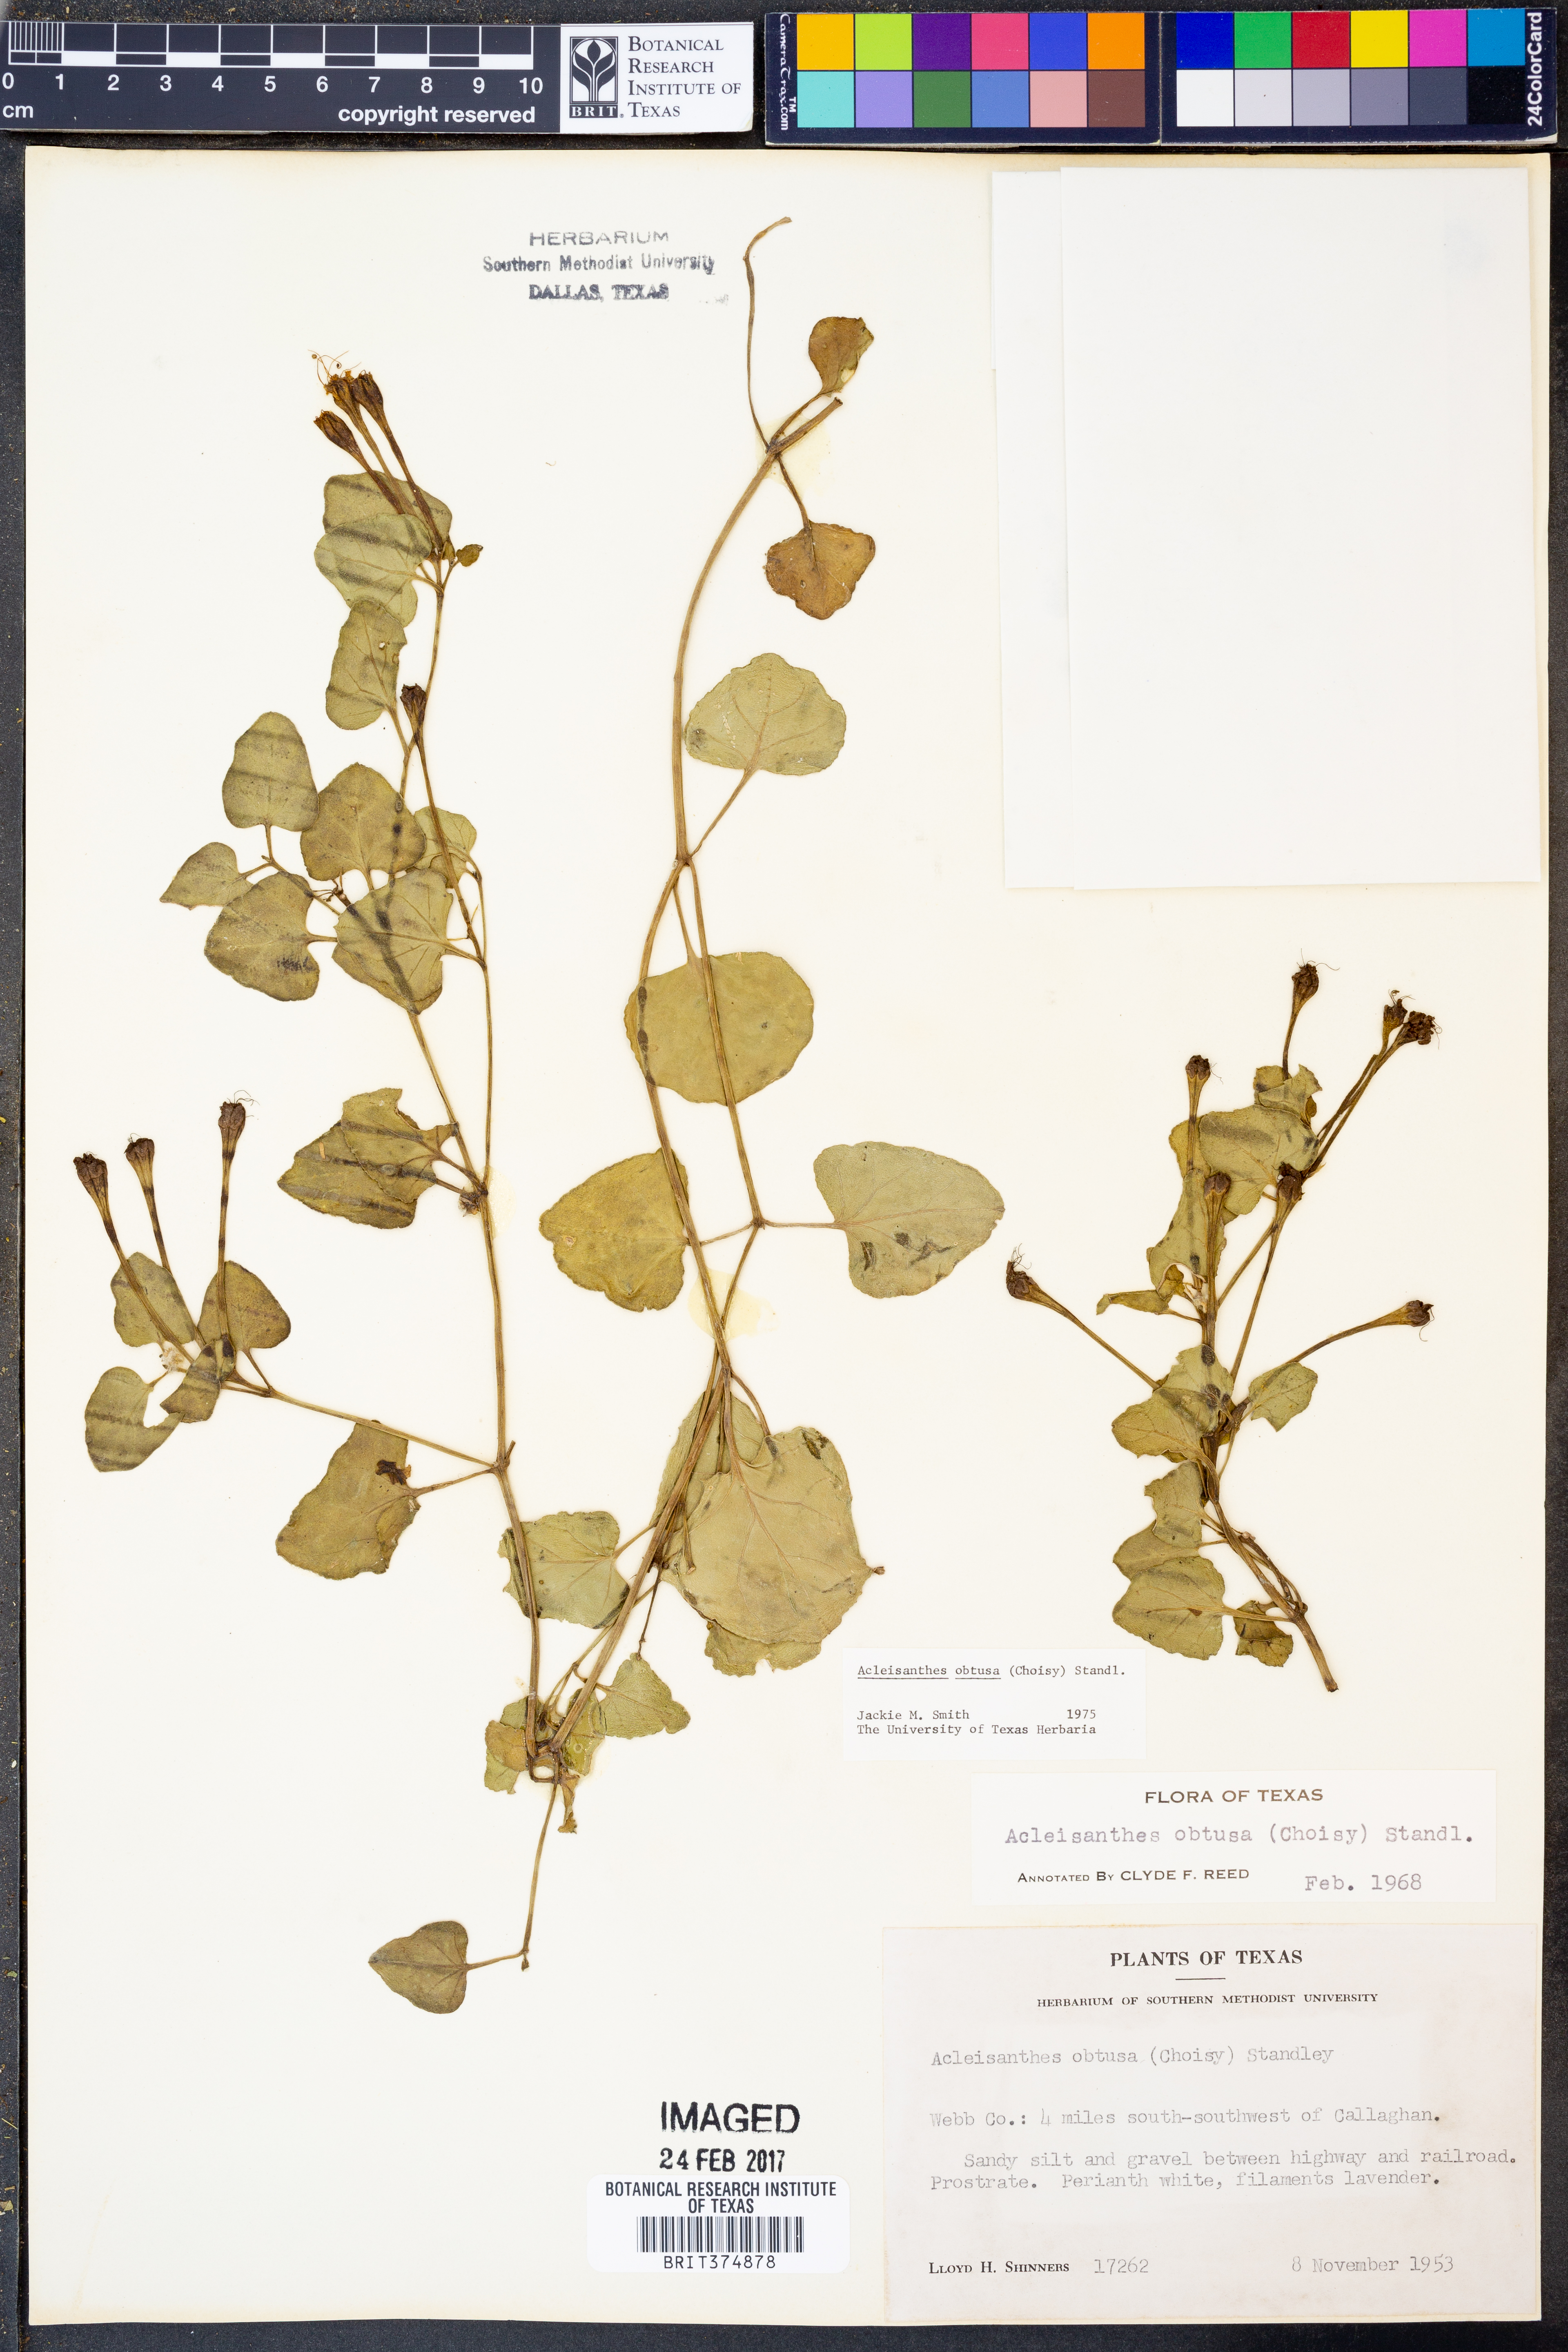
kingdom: Plantae
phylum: Tracheophyta
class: Magnoliopsida
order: Caryophyllales
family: Nyctaginaceae
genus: Acleisanthes
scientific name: Acleisanthes obtusa
